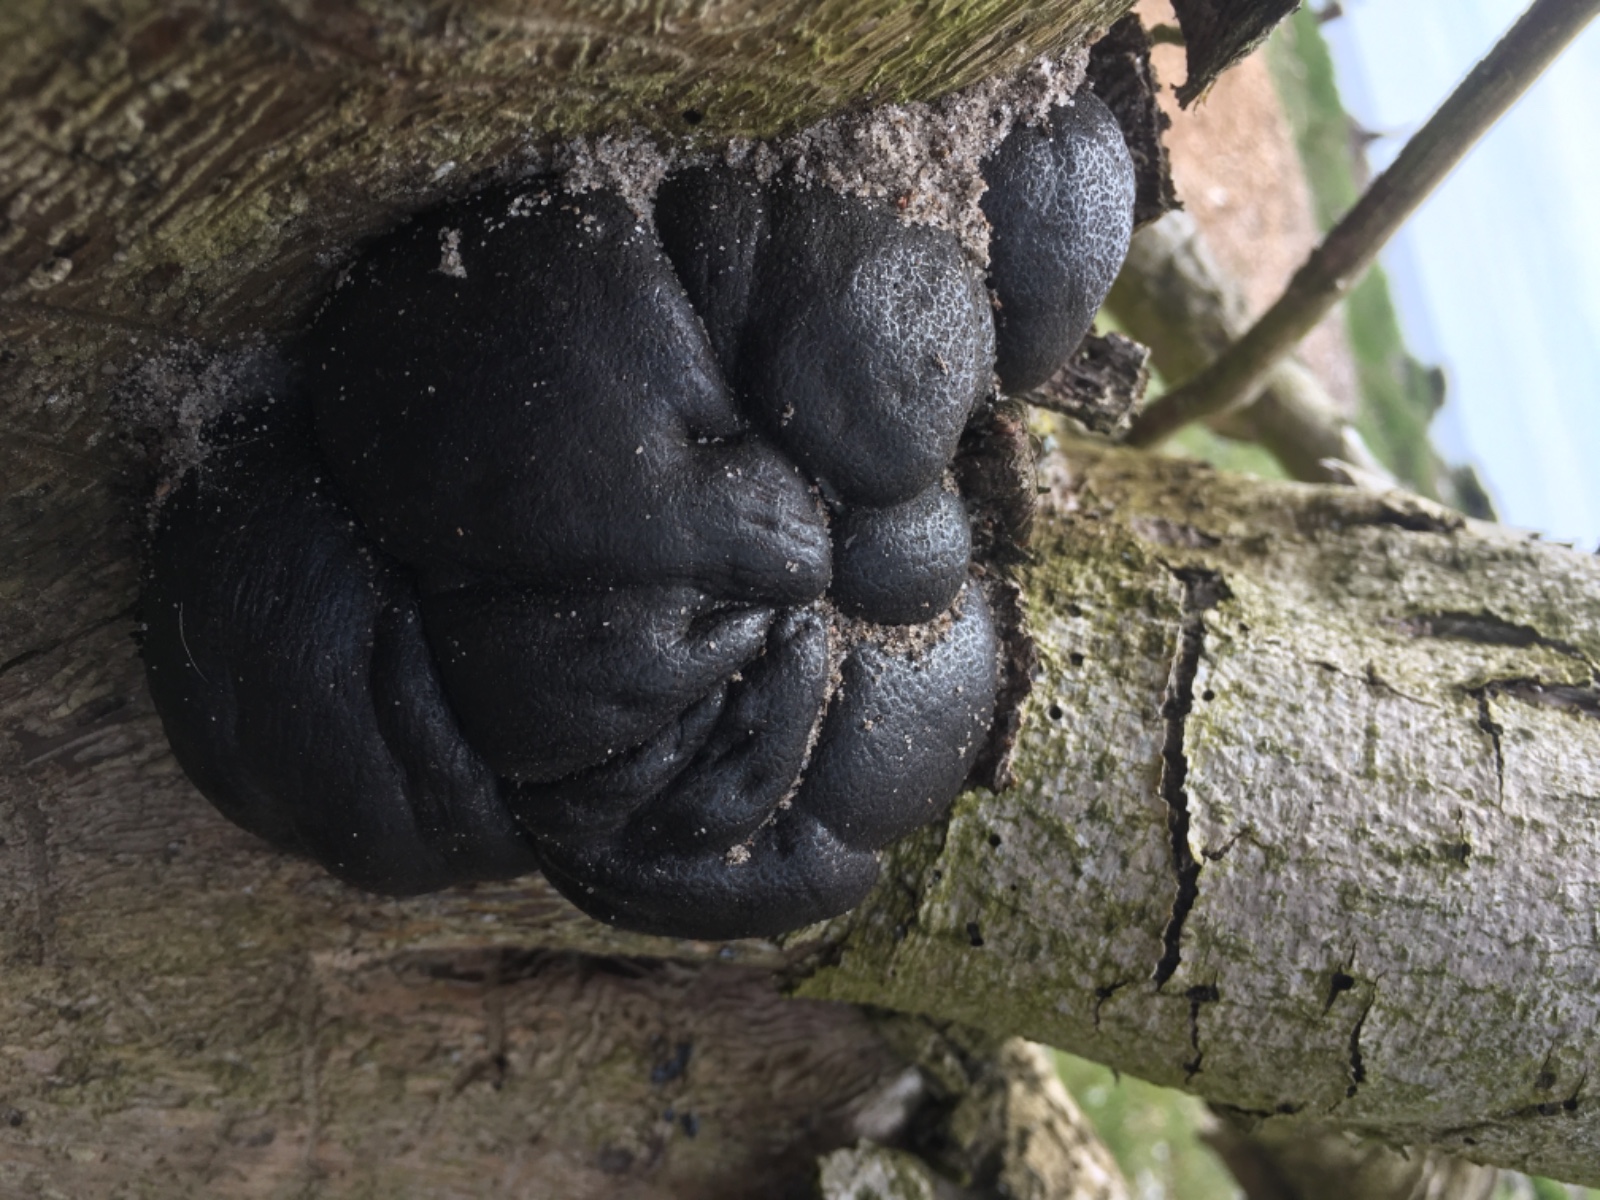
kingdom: Fungi
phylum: Ascomycota
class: Sordariomycetes
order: Xylariales
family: Hypoxylaceae
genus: Daldinia
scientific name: Daldinia concentrica
